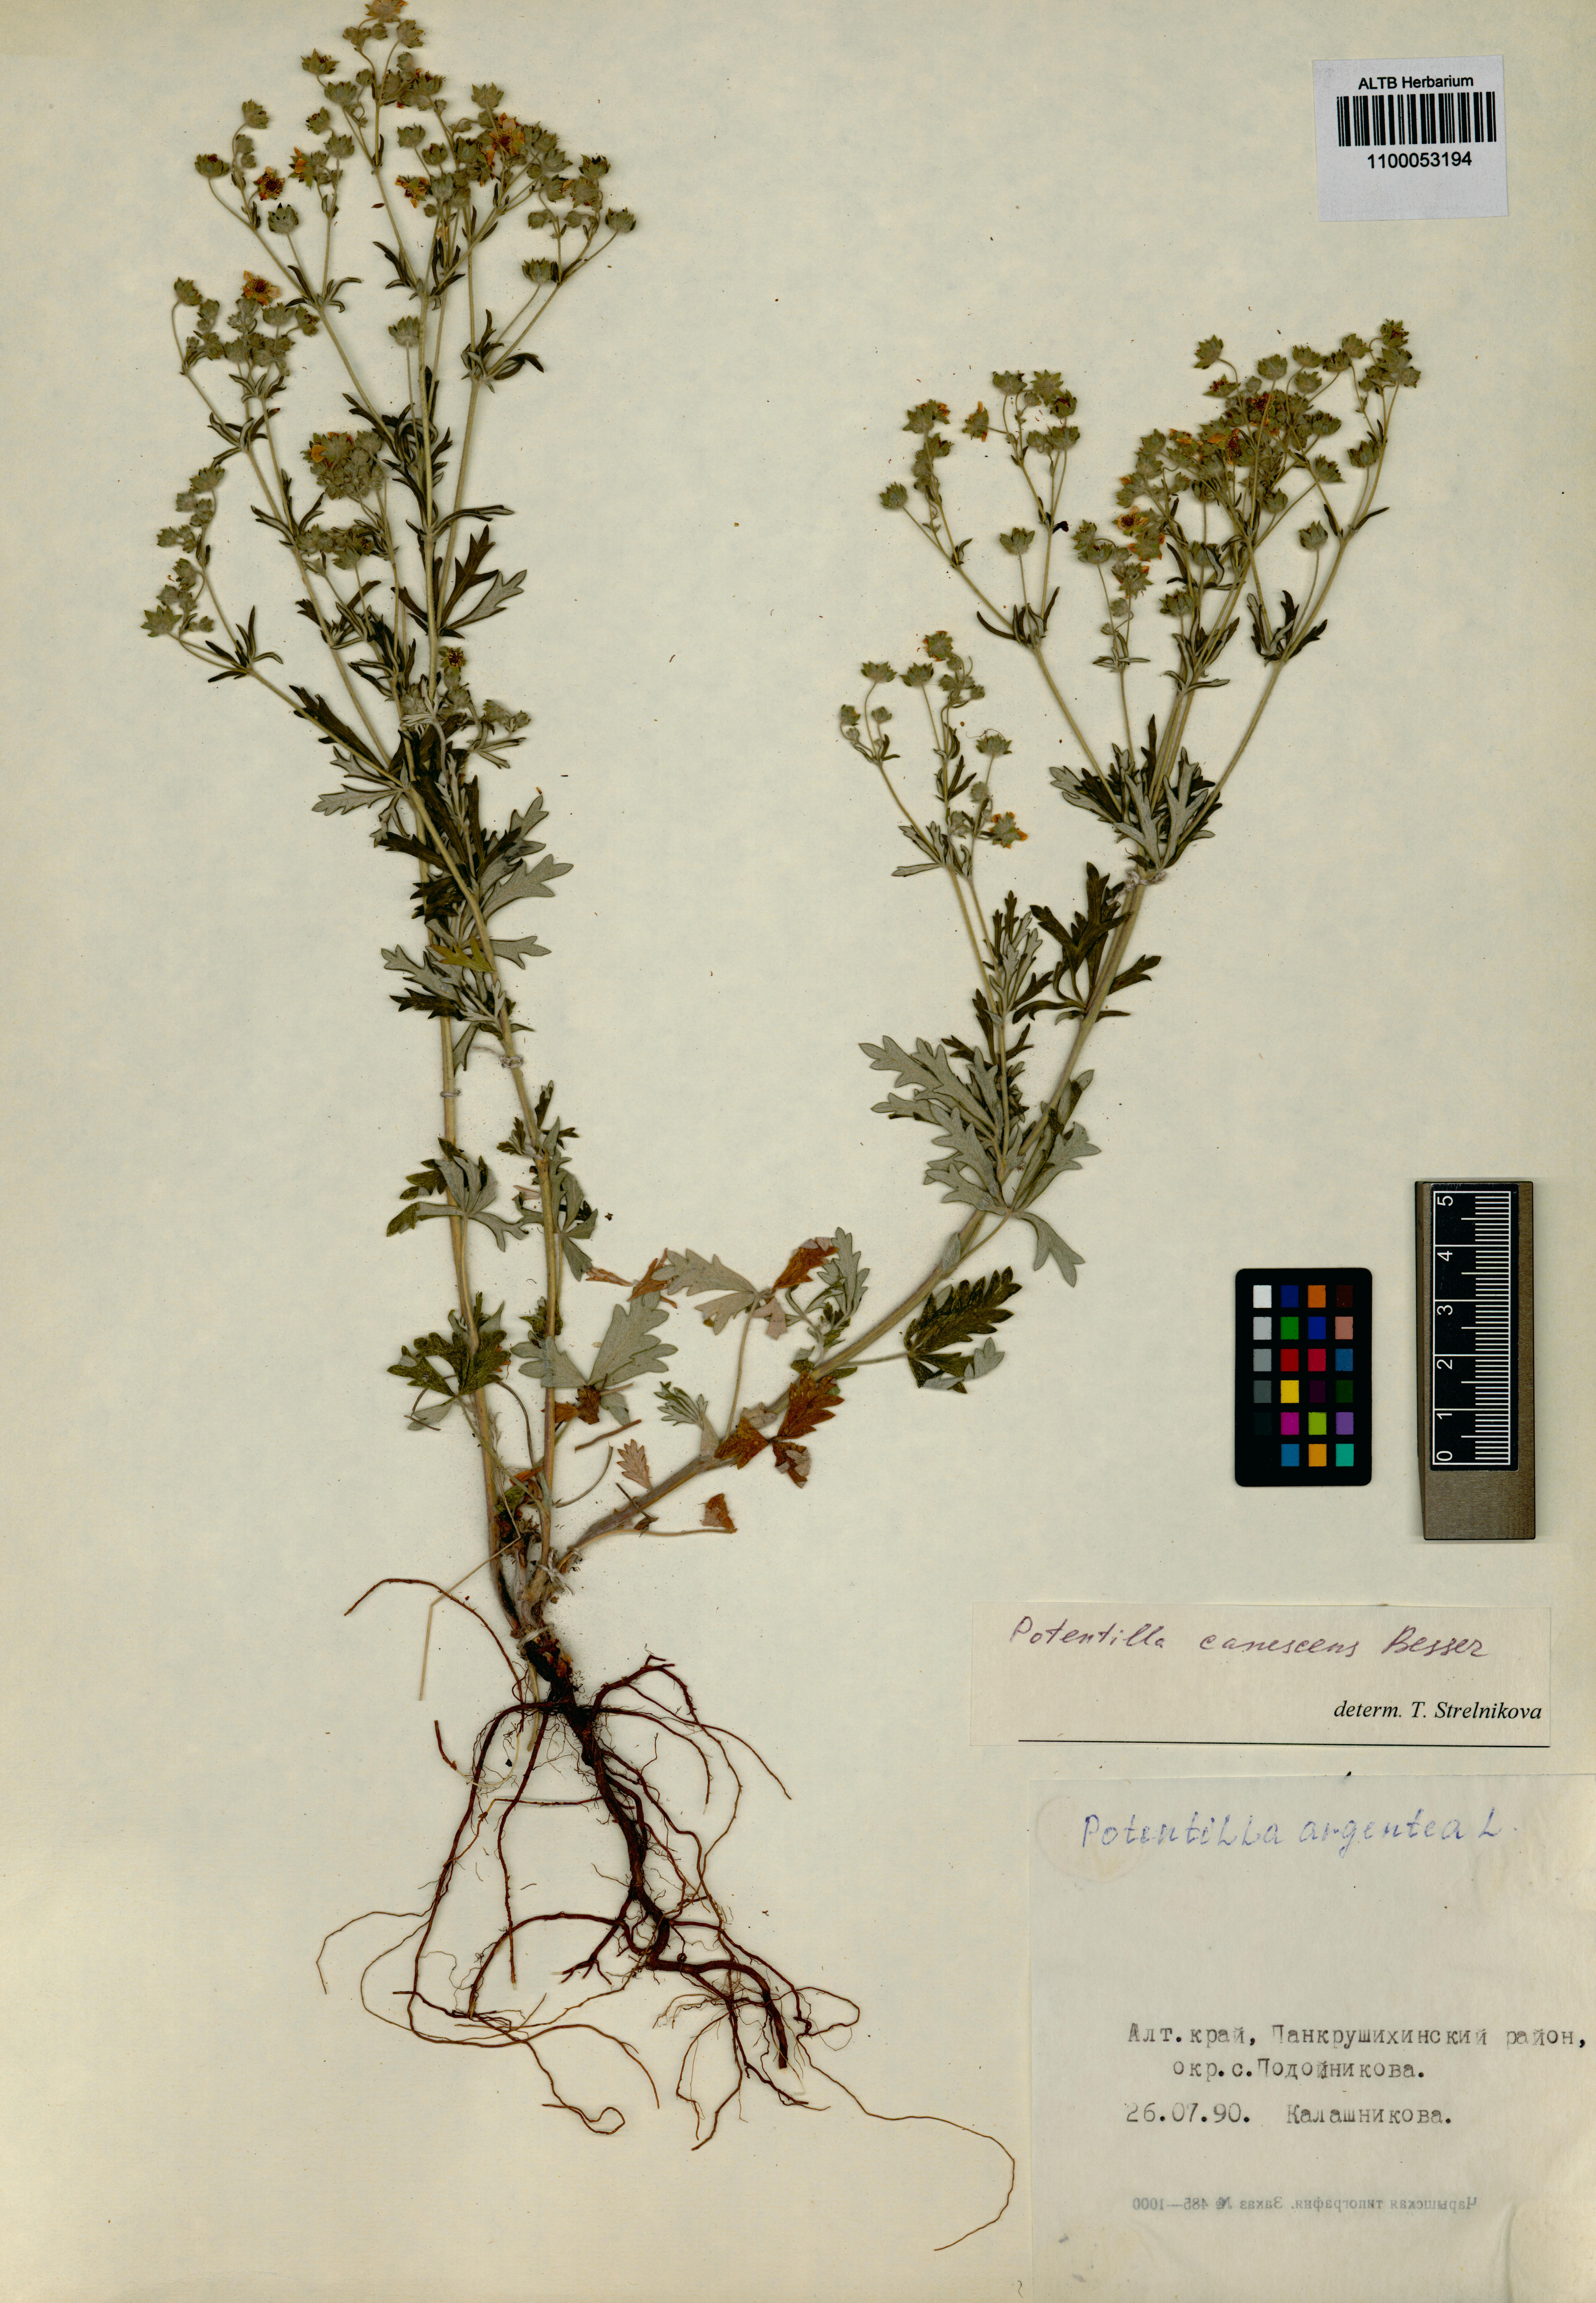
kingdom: Plantae
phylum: Tracheophyta
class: Magnoliopsida
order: Rosales
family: Rosaceae
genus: Potentilla
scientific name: Potentilla inclinata
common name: Grey cinquefoil
